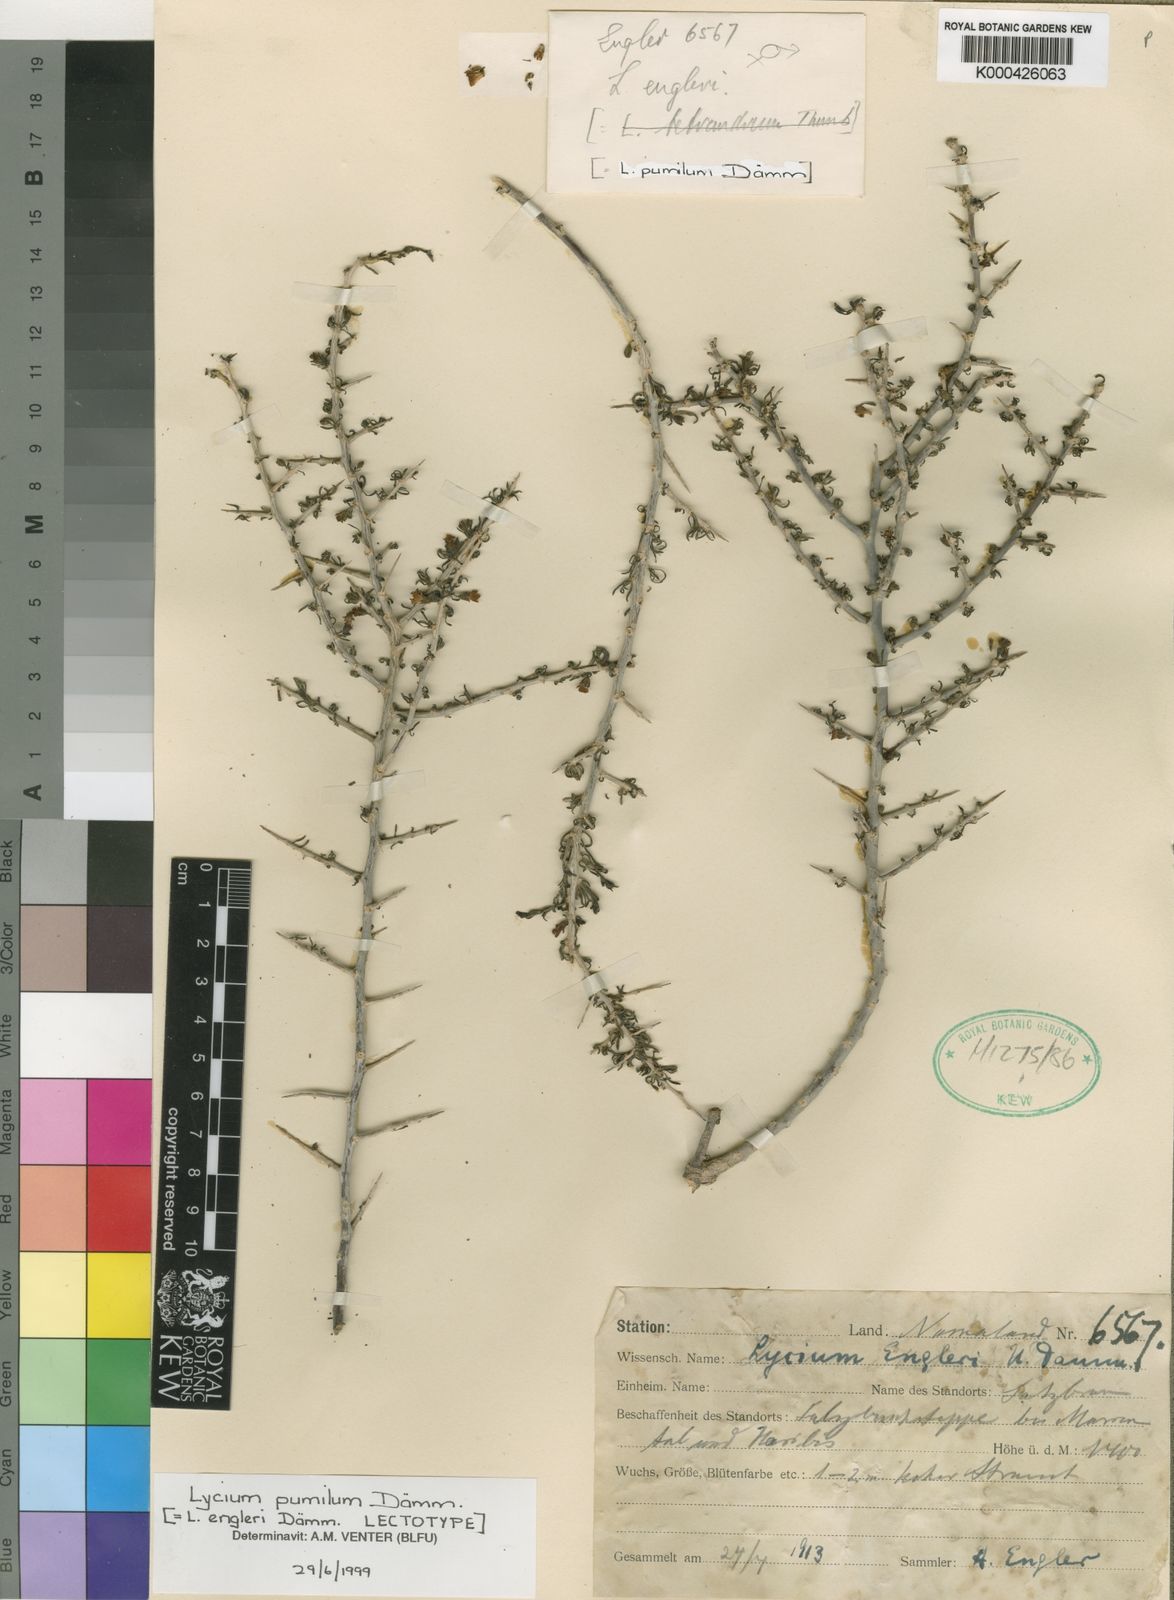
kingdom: Plantae
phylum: Tracheophyta
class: Magnoliopsida
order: Solanales
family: Solanaceae
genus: Lycium
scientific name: Lycium cinereum
